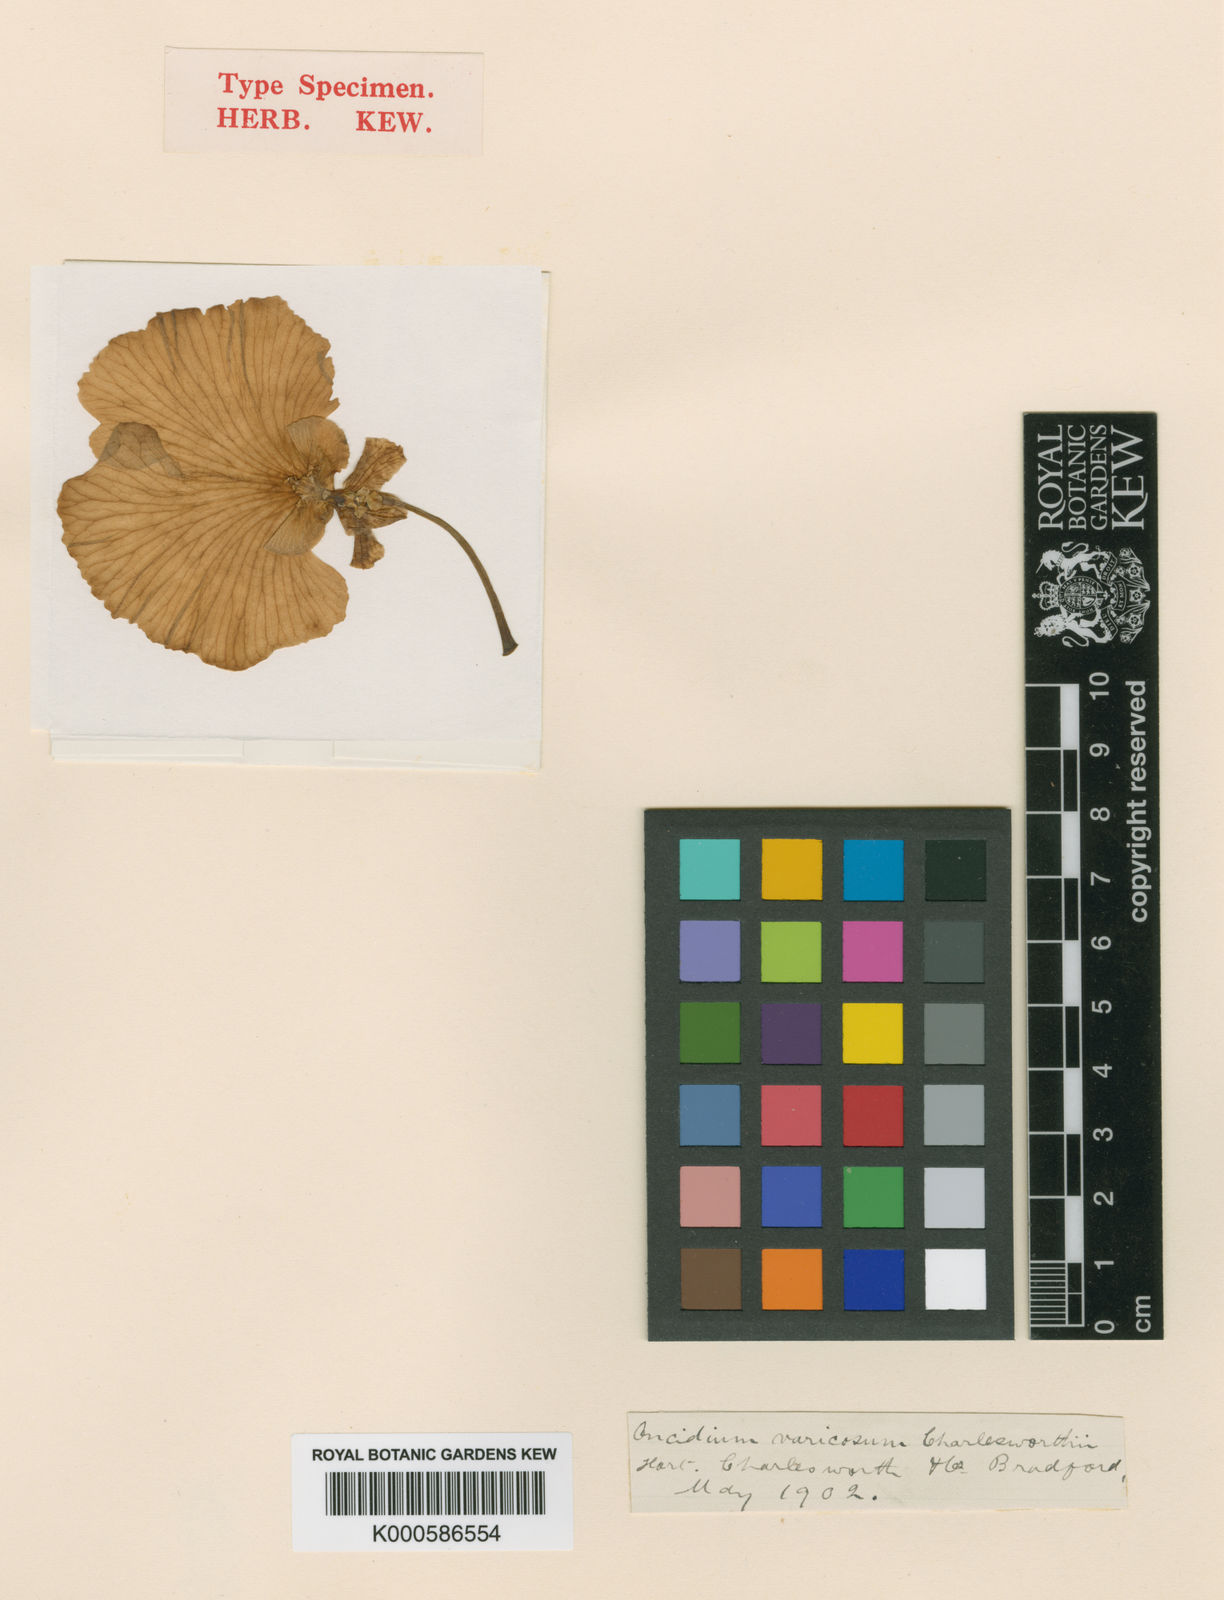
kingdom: Plantae
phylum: Tracheophyta
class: Liliopsida
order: Asparagales
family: Orchidaceae
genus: Gomesa
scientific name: Gomesa varicosa
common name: Dancing ladies
